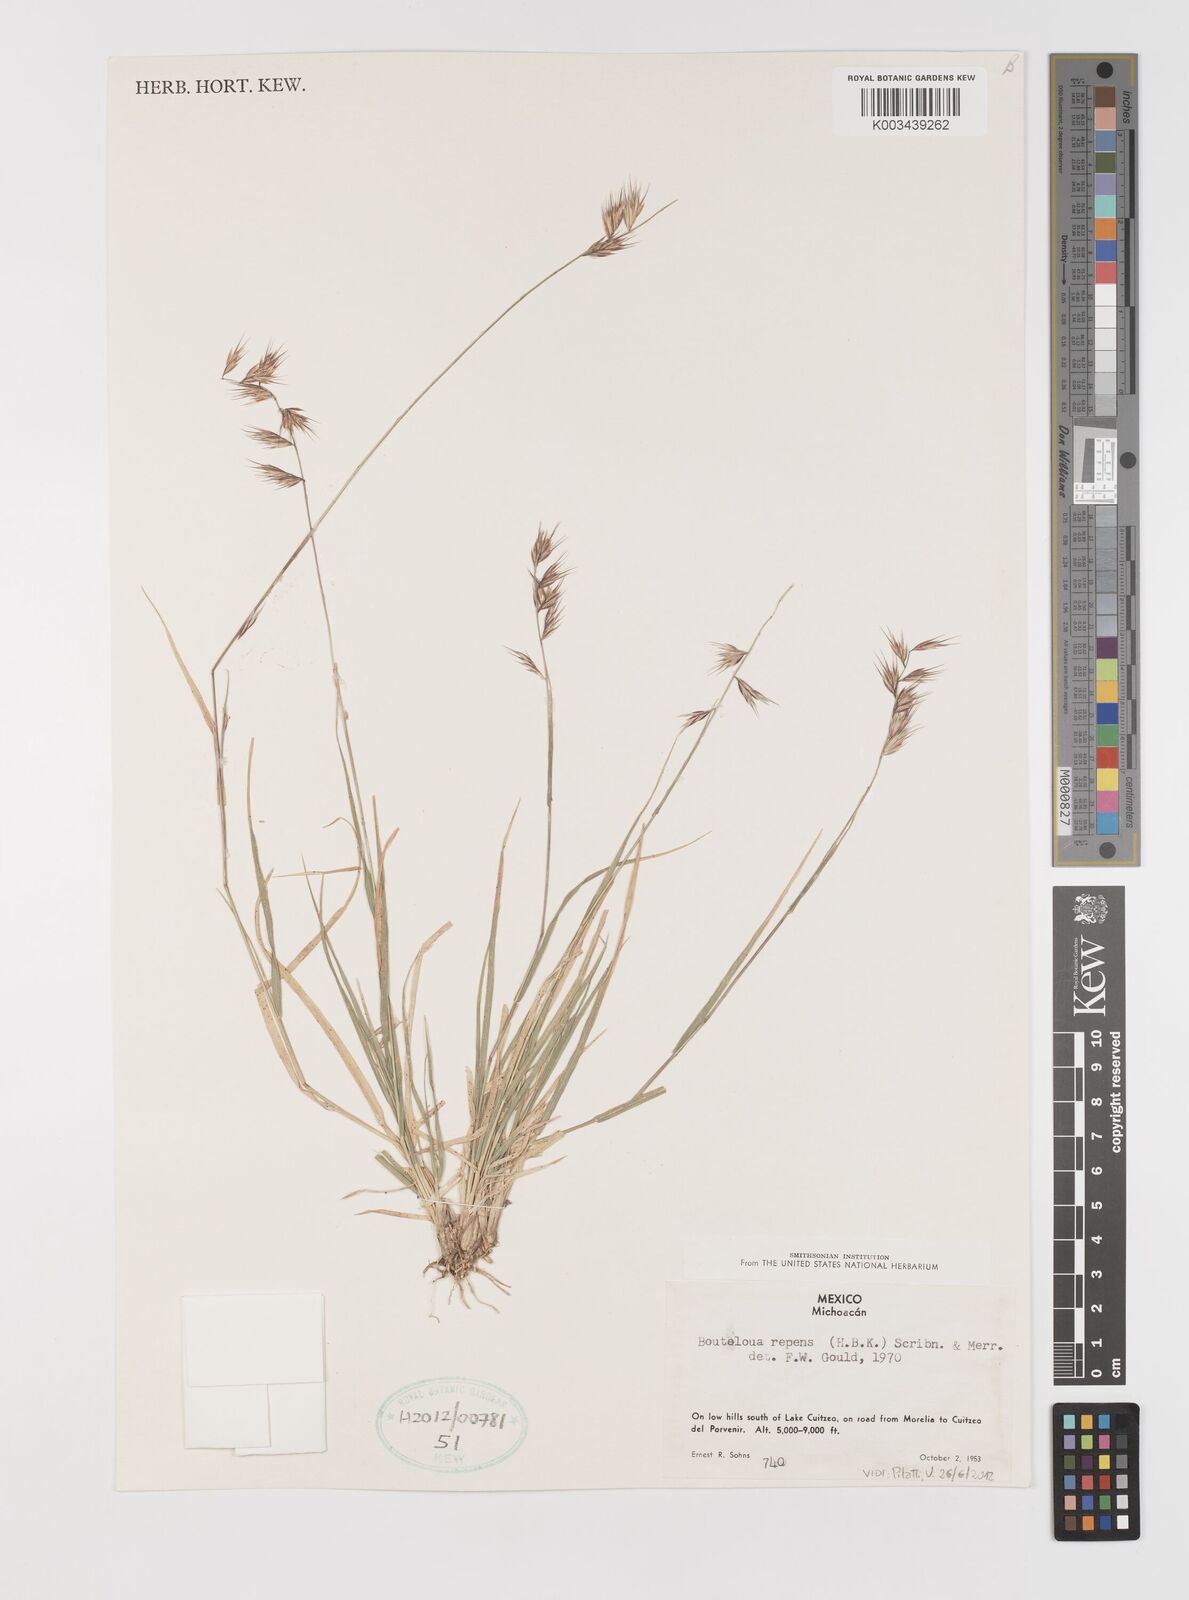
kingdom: Plantae
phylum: Tracheophyta
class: Liliopsida
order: Poales
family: Poaceae
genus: Bouteloua
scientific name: Bouteloua repens
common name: Slender grama
